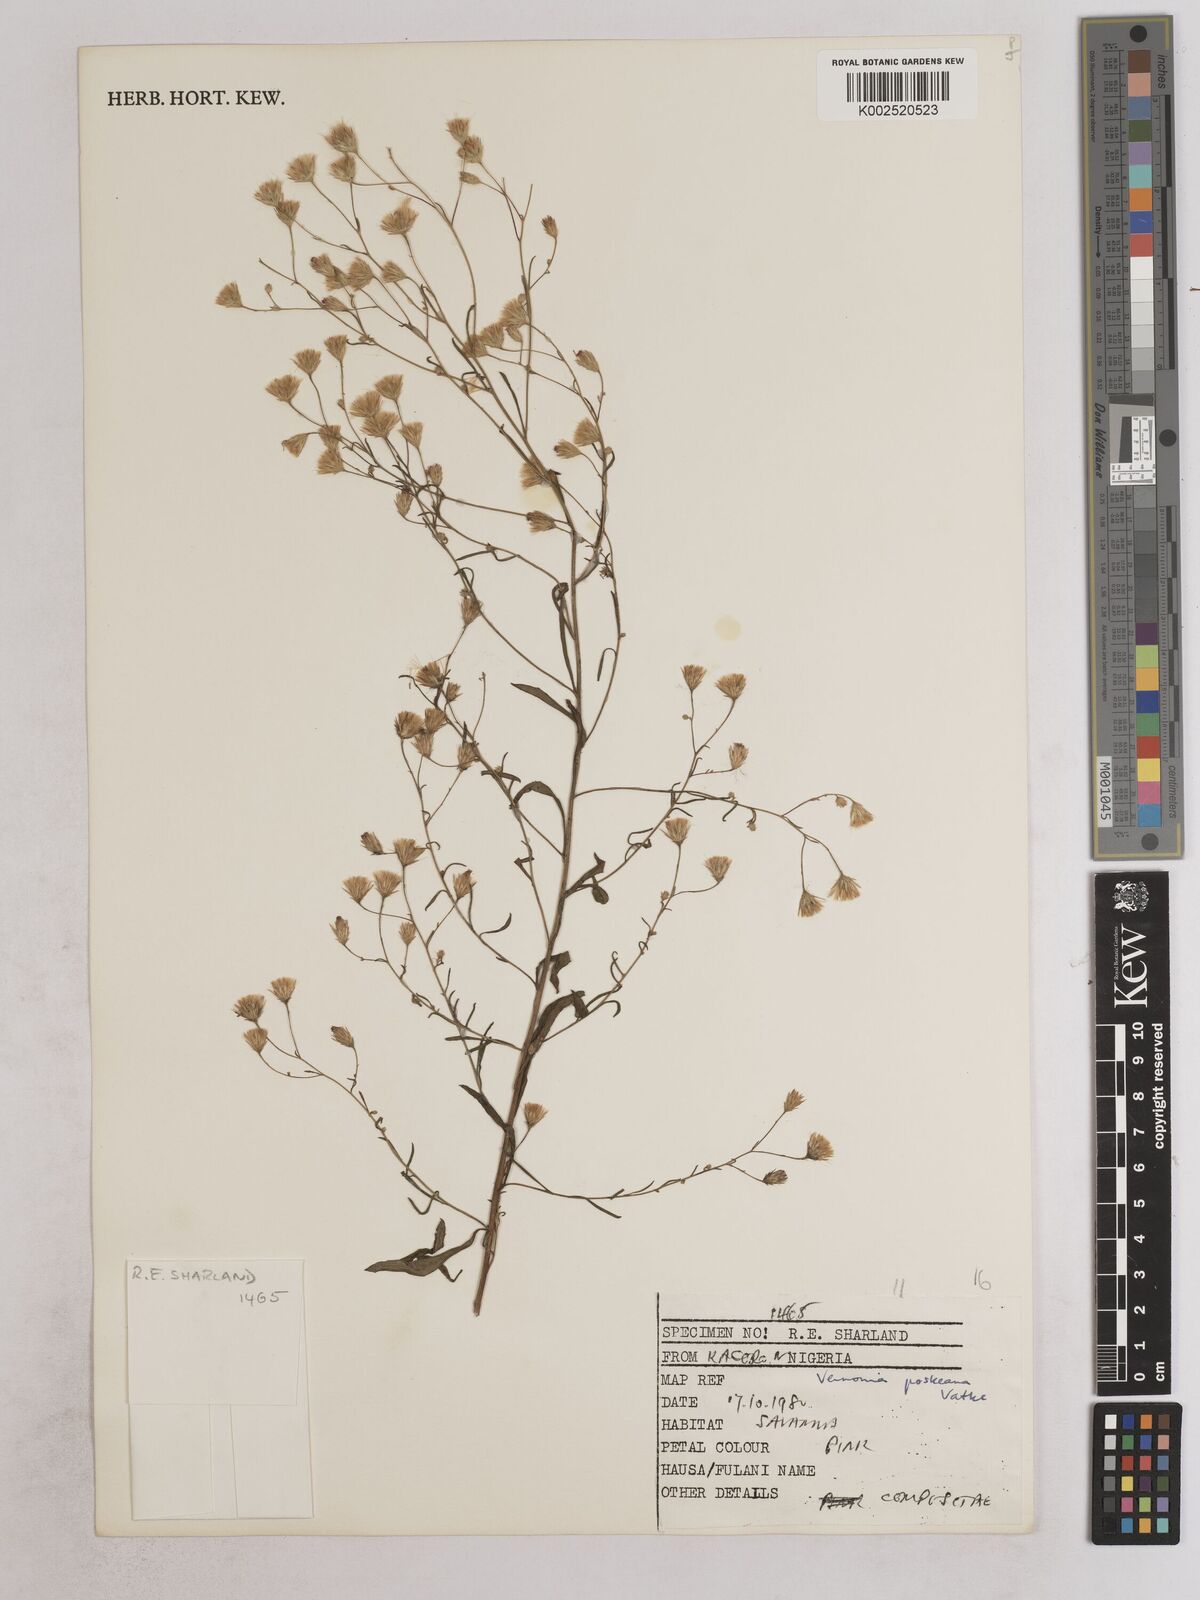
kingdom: Plantae
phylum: Tracheophyta
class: Magnoliopsida
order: Asterales
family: Asteraceae
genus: Crystallopollen
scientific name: Crystallopollen angustifolium
